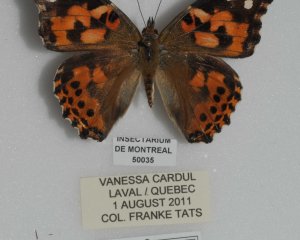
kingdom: Animalia
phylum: Arthropoda
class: Insecta
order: Lepidoptera
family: Nymphalidae
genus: Vanessa
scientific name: Vanessa cardui
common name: Painted Lady
